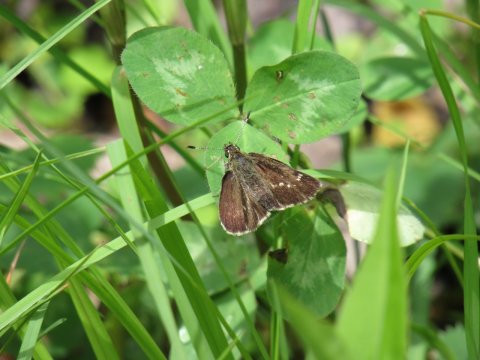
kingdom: Animalia
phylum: Arthropoda
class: Insecta
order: Lepidoptera
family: Hesperiidae
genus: Mastor
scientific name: Mastor hegon
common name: Pepper and Salt Skipper
